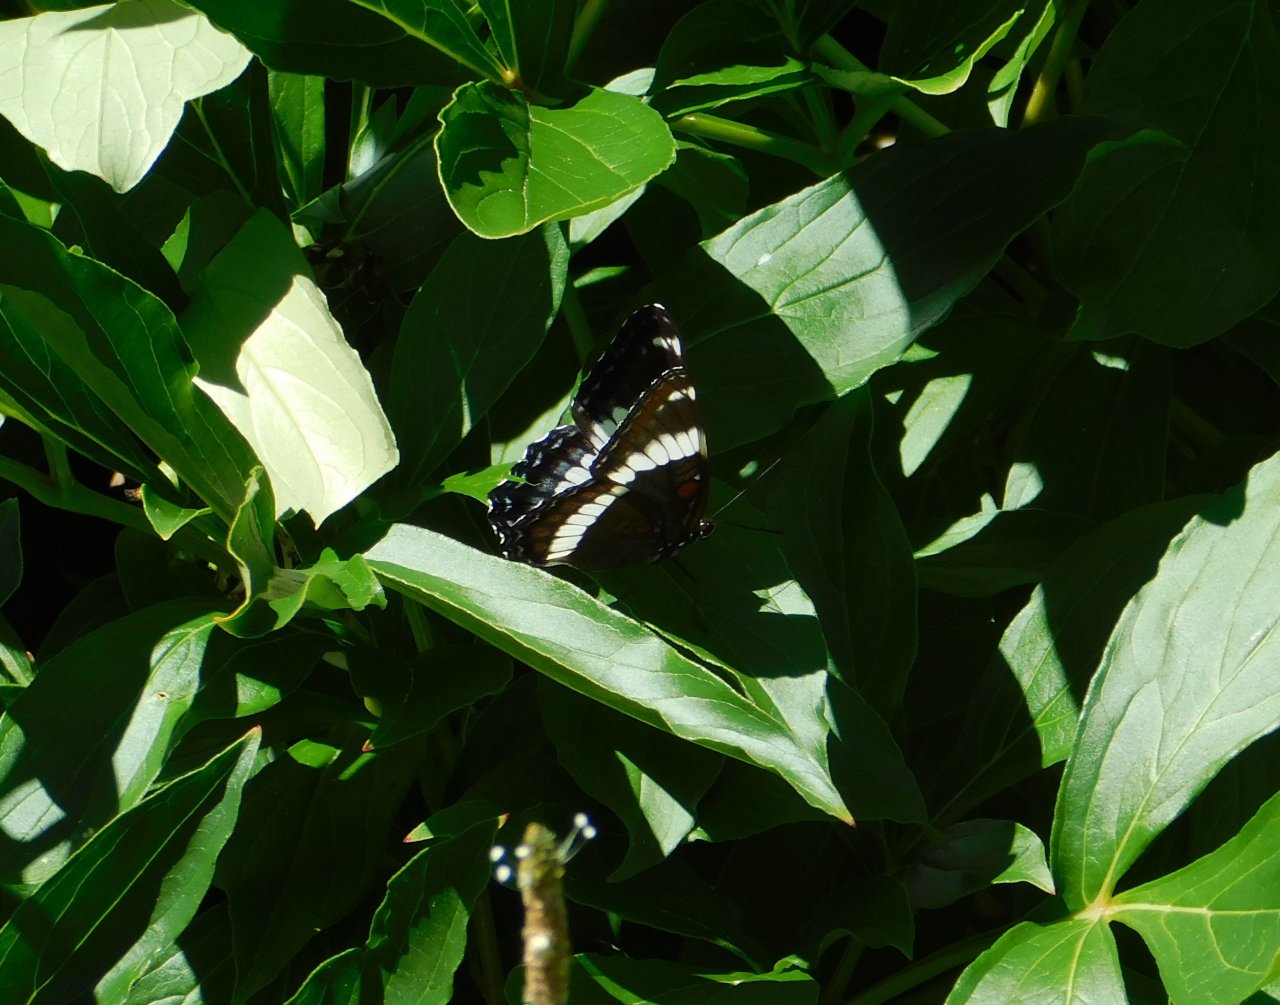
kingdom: Animalia
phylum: Arthropoda
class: Insecta
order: Lepidoptera
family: Nymphalidae
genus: Limenitis
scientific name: Limenitis arthemis
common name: Red-spotted Admiral
